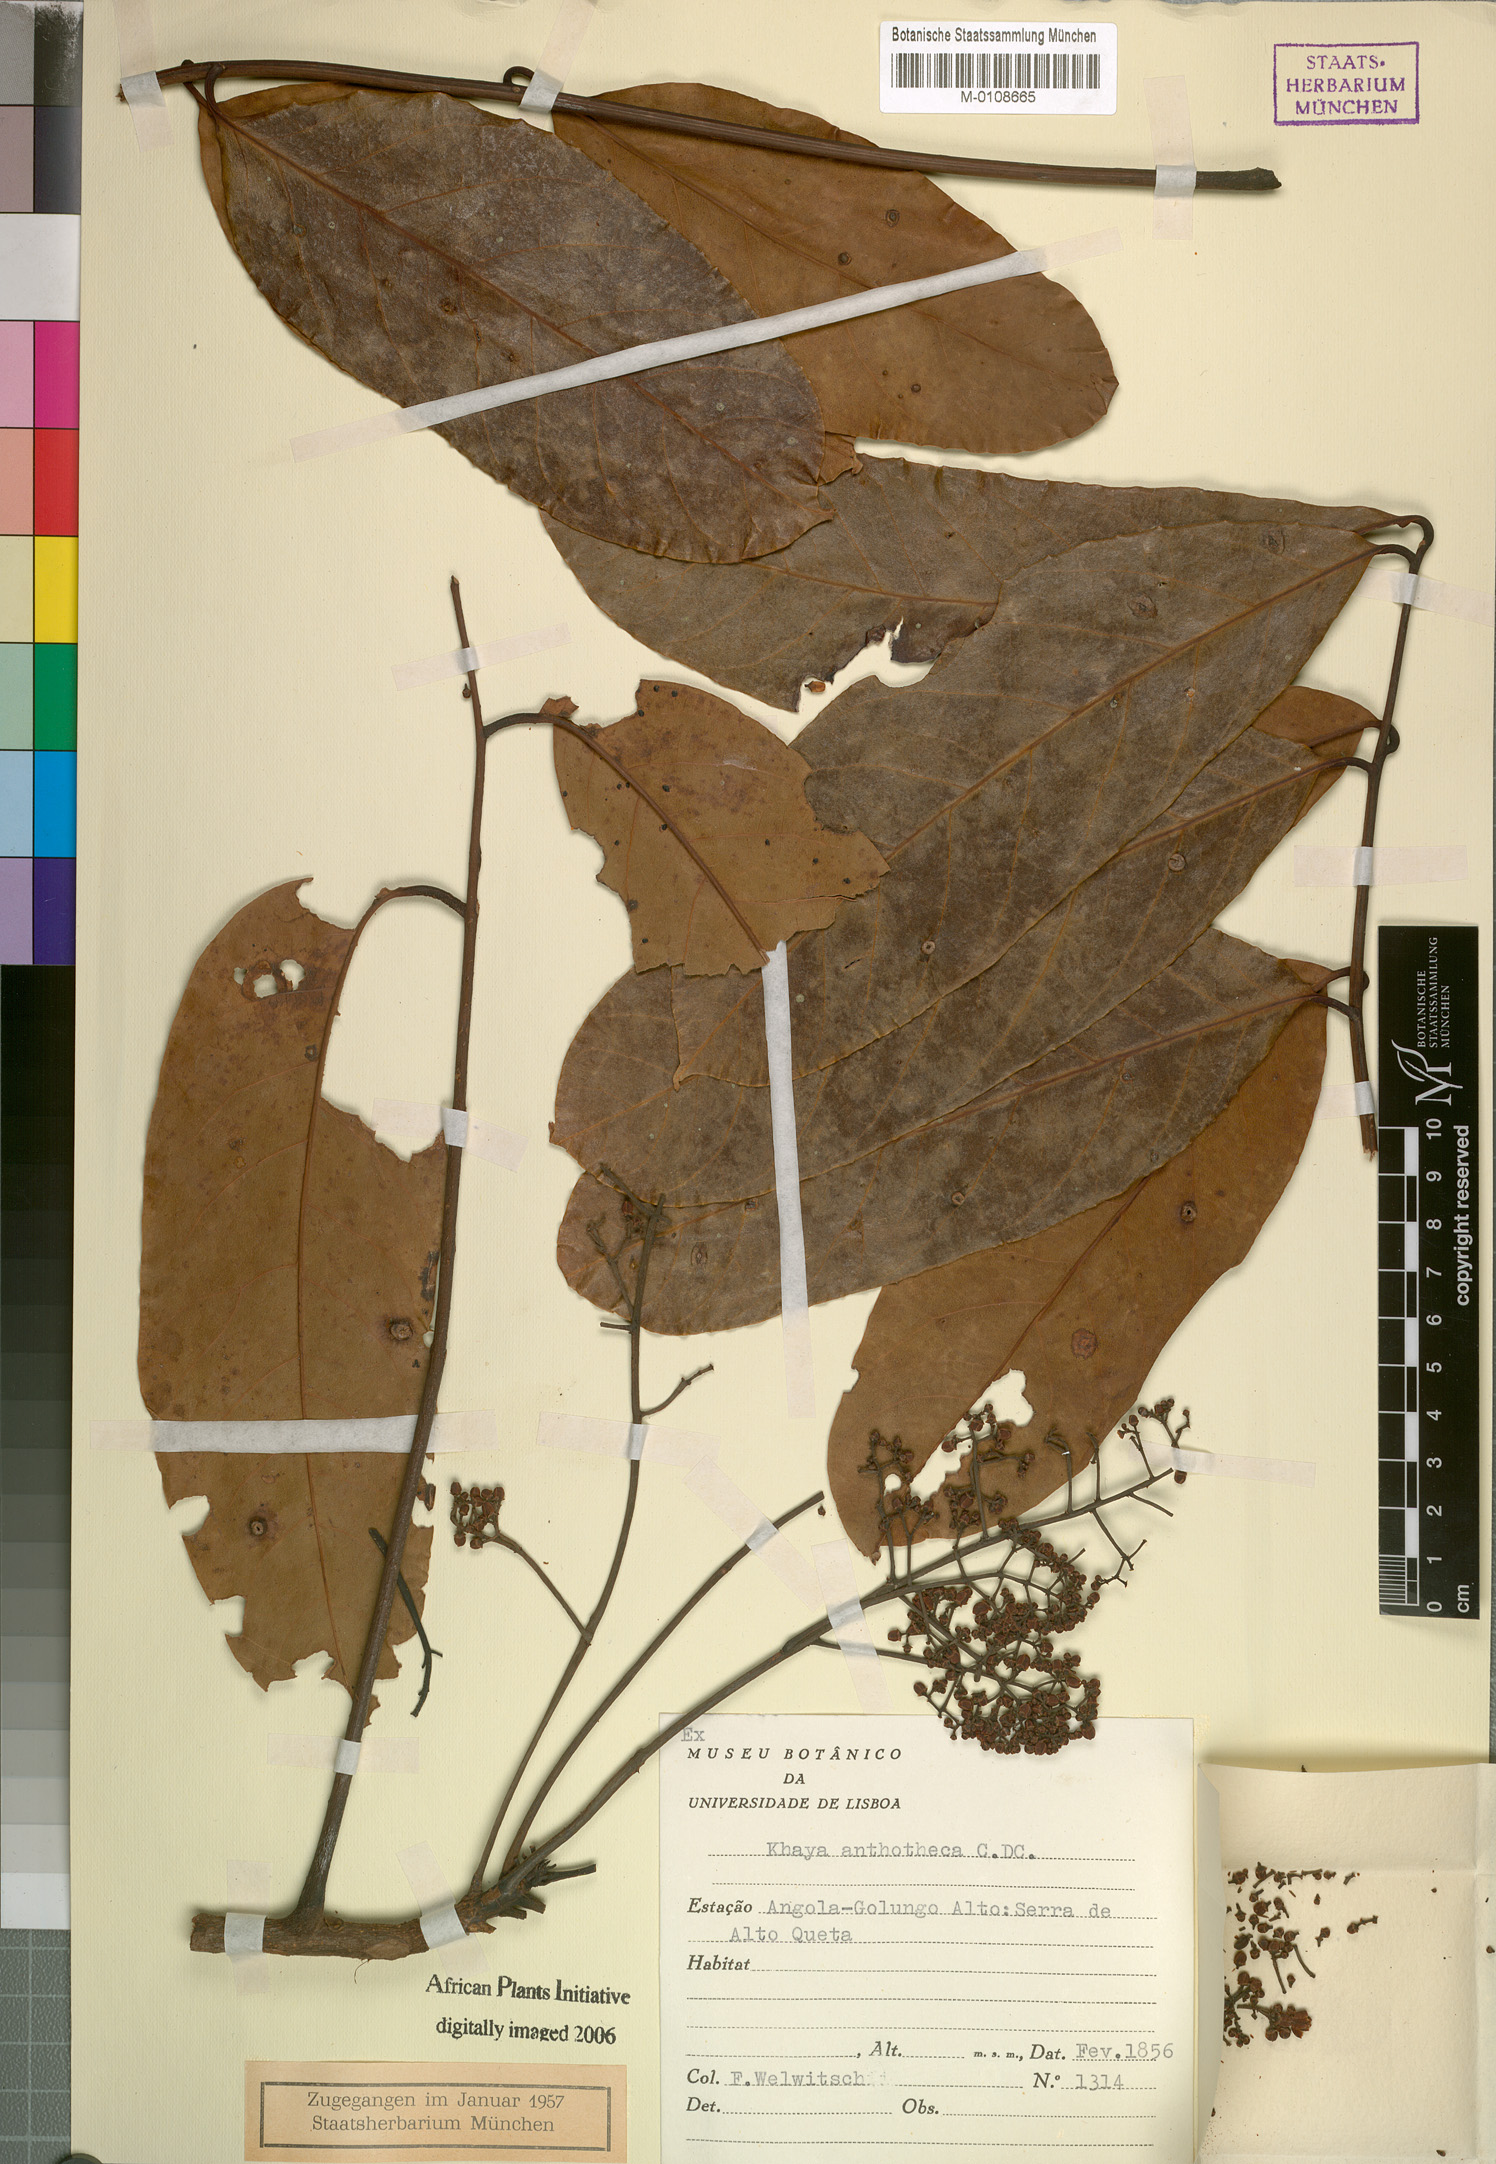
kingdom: Plantae
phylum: Tracheophyta
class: Magnoliopsida
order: Sapindales
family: Meliaceae
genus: Khaya
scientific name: Khaya anthotheca
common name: Nyasaland mahogany
